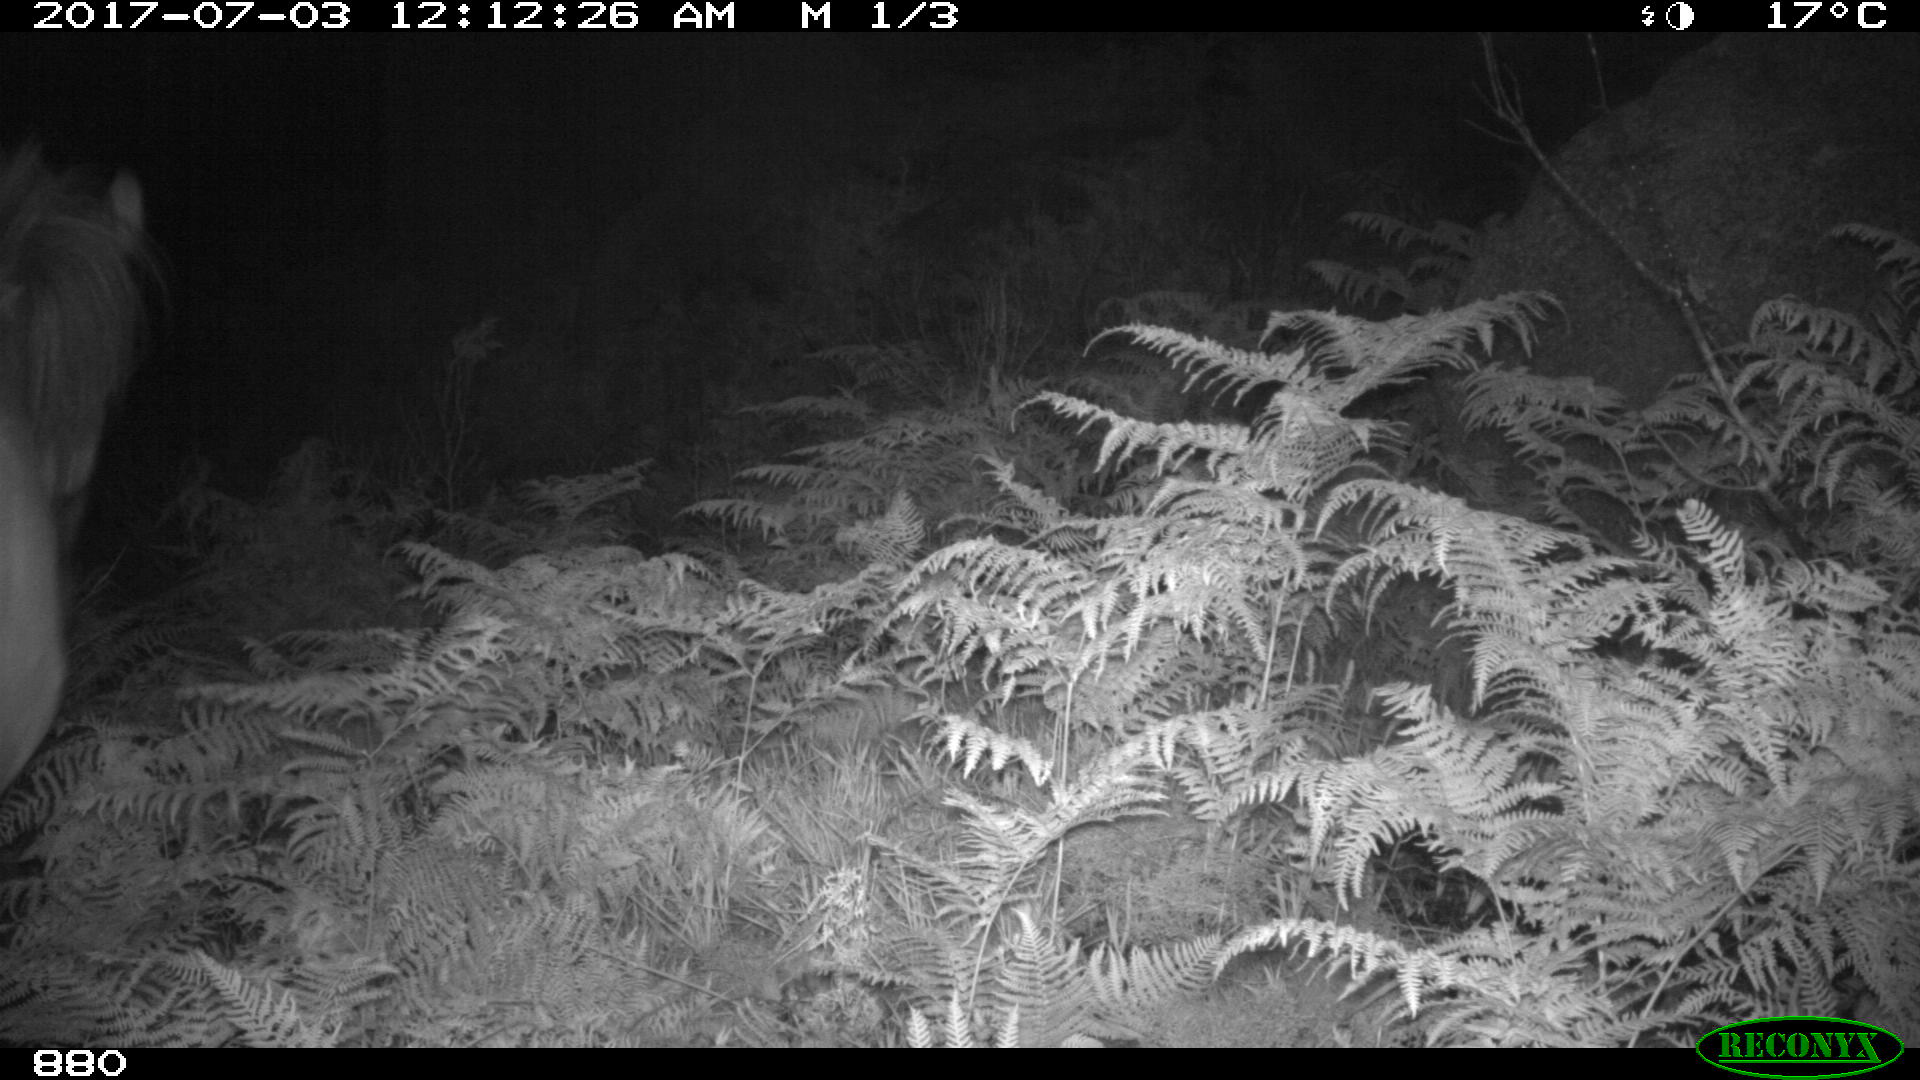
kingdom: Animalia
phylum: Chordata
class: Mammalia
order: Perissodactyla
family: Equidae
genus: Equus
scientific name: Equus caballus
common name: Horse
